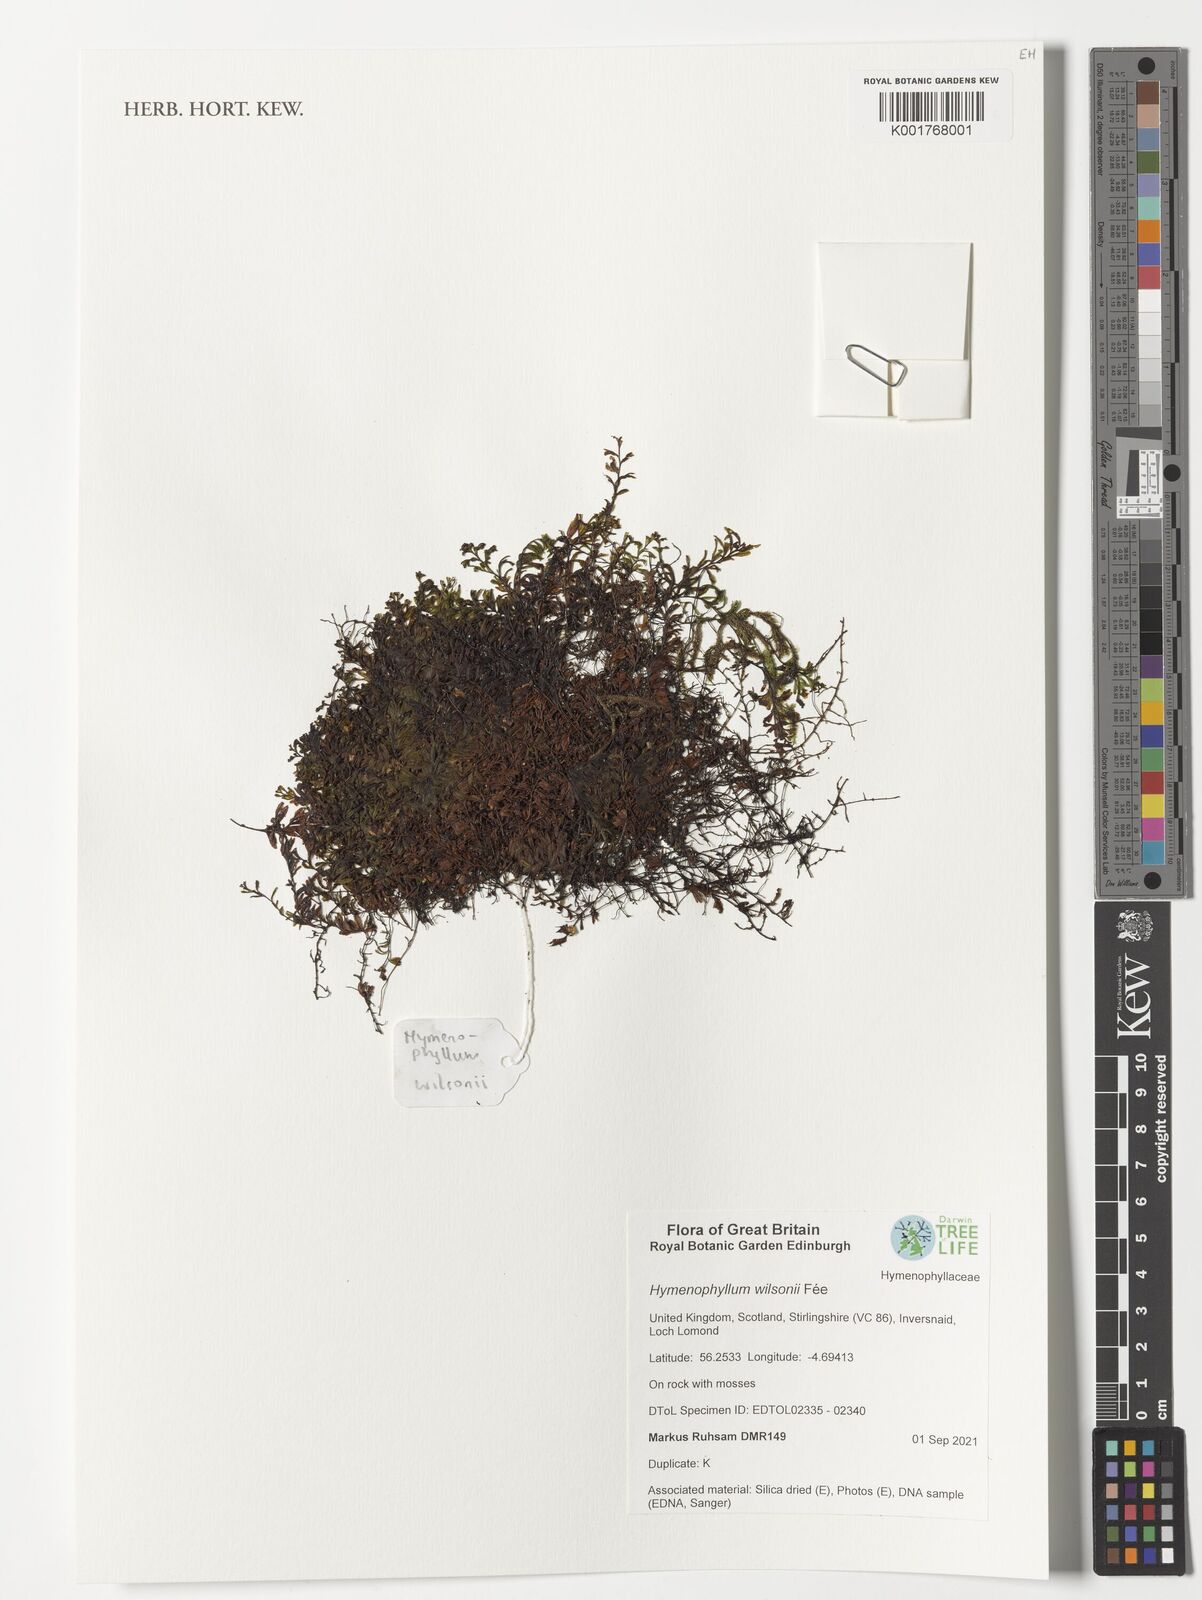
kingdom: Plantae
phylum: Tracheophyta
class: Polypodiopsida
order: Hymenophyllales
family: Hymenophyllaceae
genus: Hymenophyllum
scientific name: Hymenophyllum lineare
